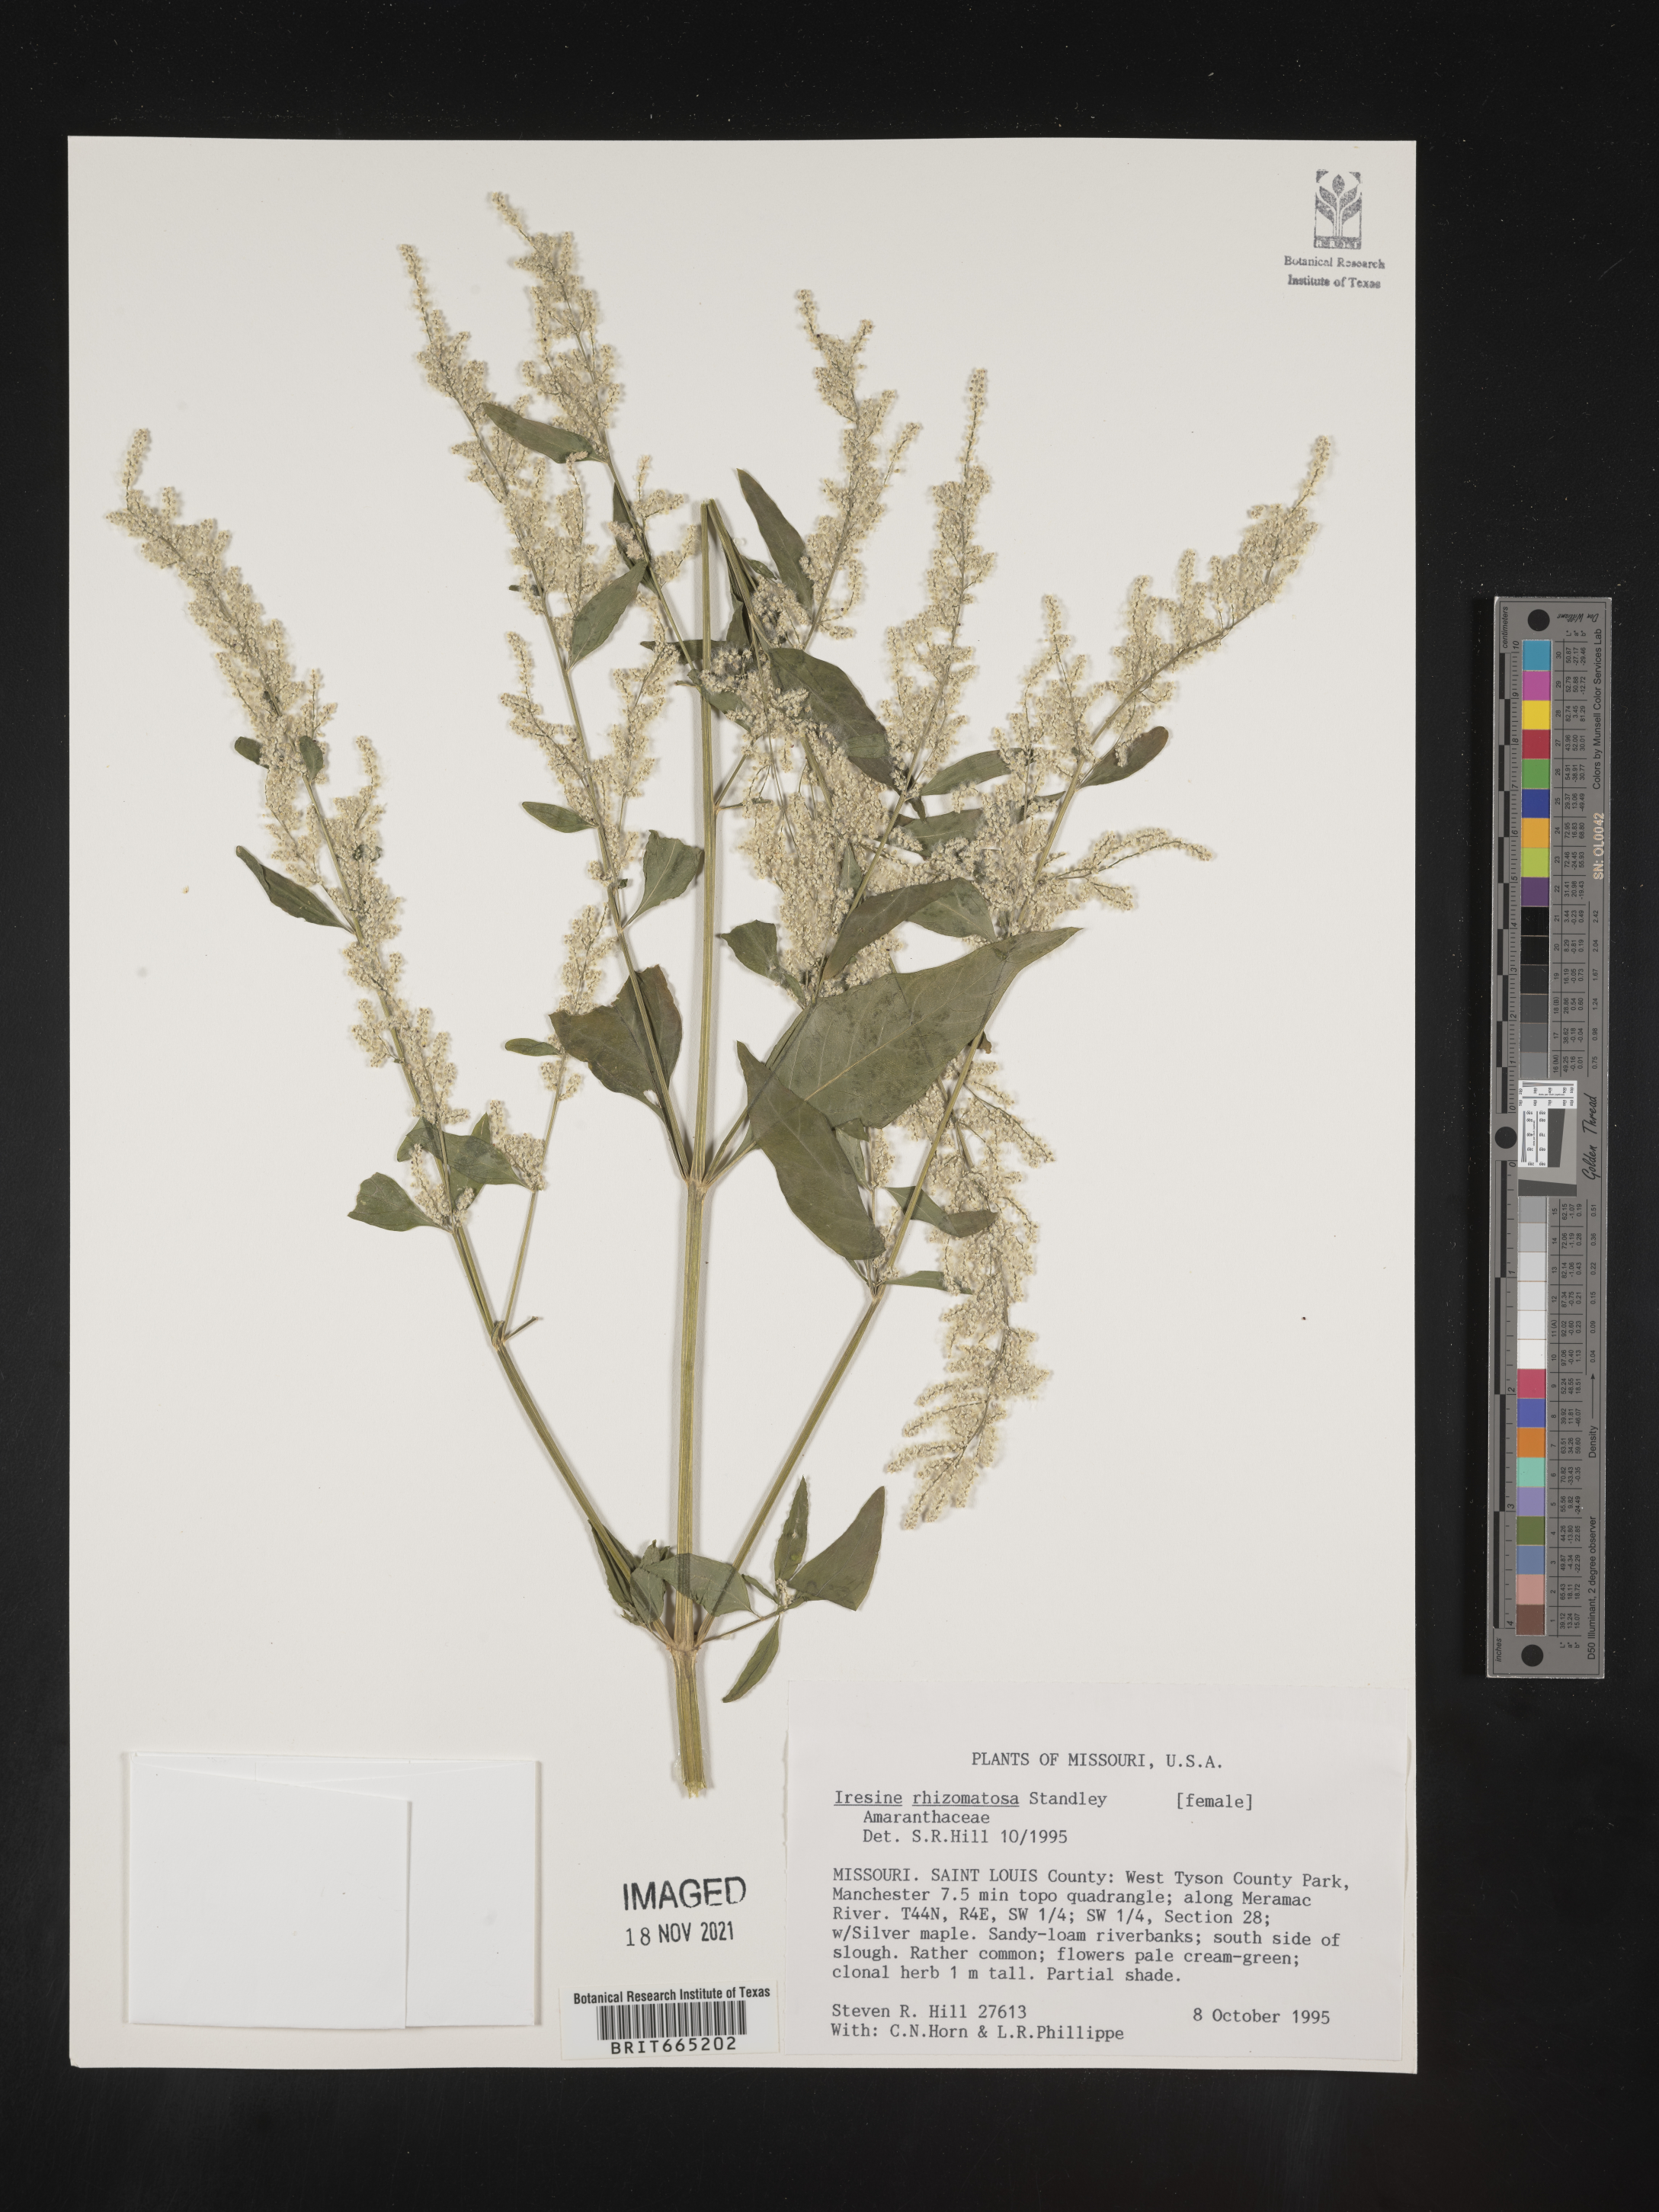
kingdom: Plantae
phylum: Tracheophyta
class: Magnoliopsida
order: Caryophyllales
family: Amaranthaceae
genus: Iresine
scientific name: Iresine rhizomatosa
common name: Juda's-bush
